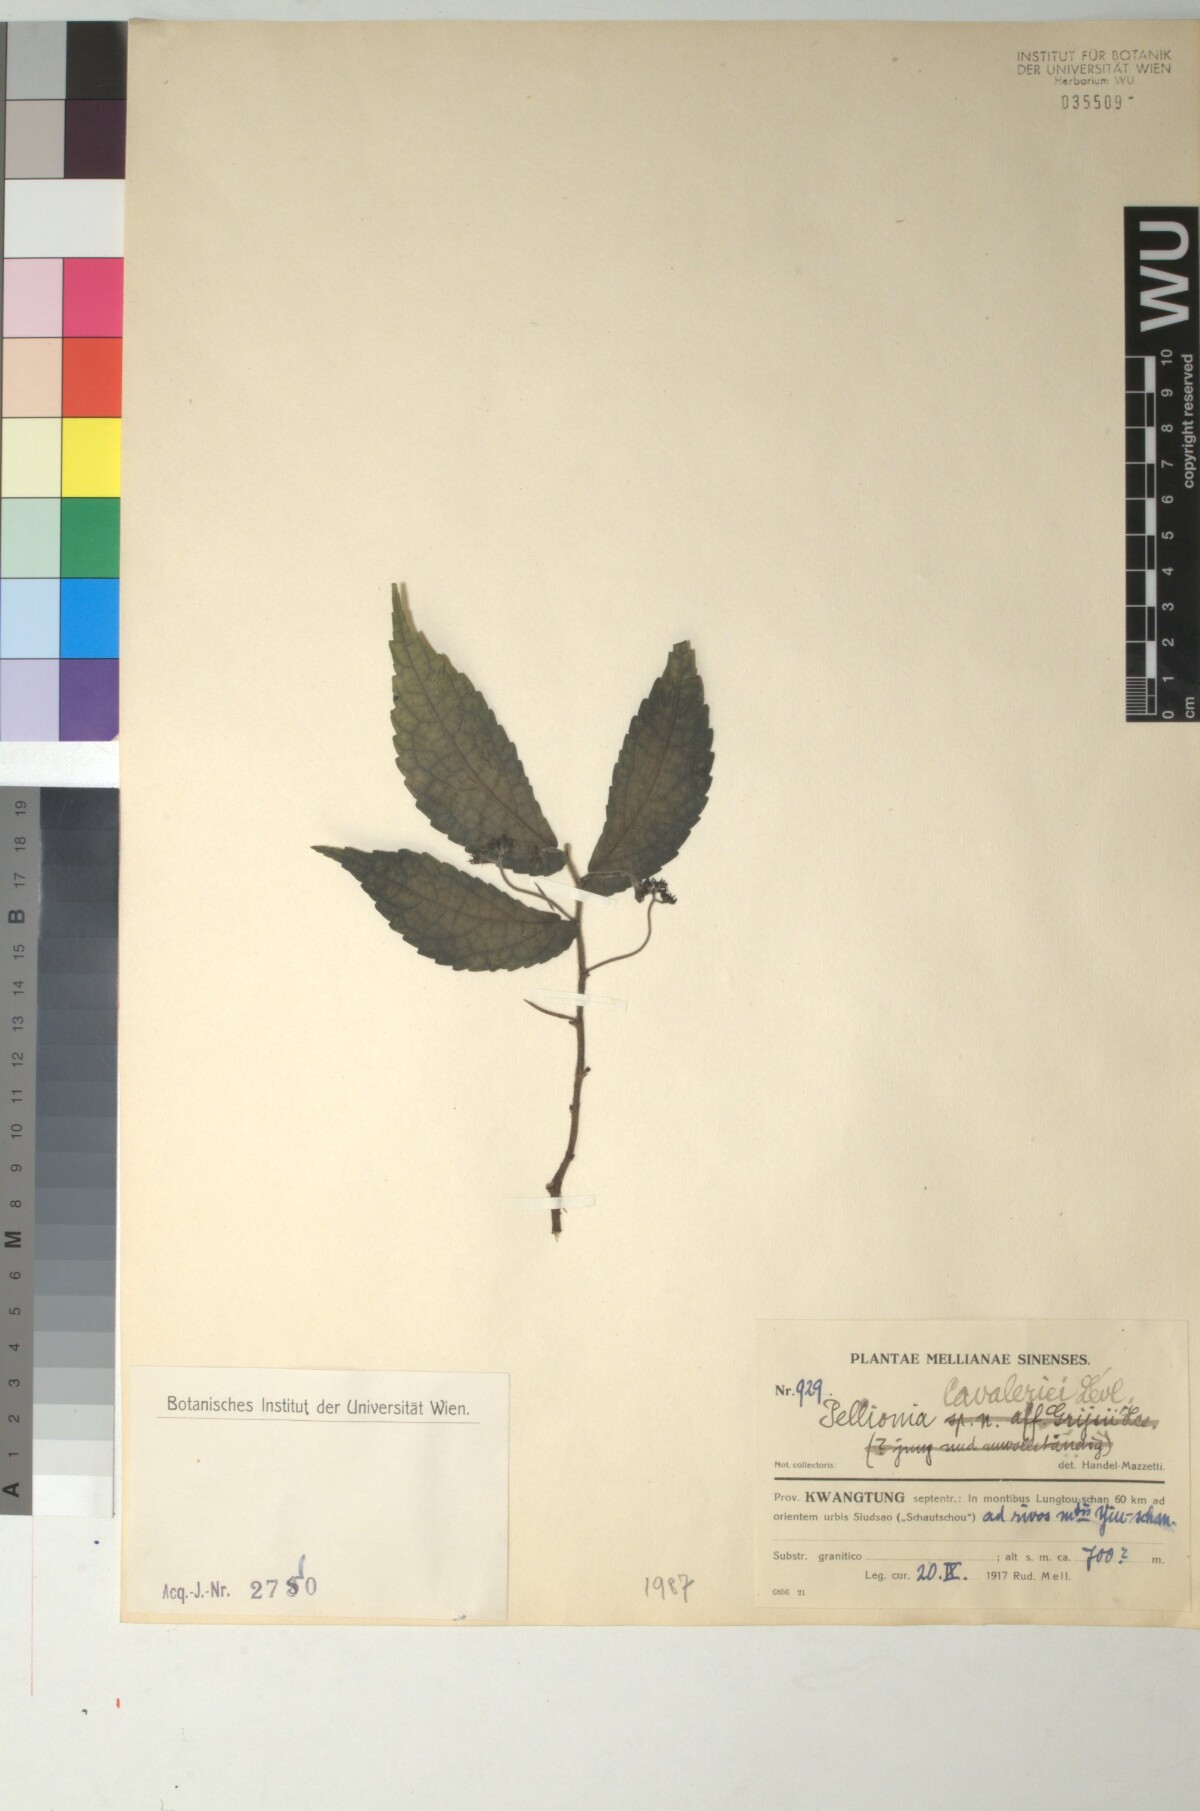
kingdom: Plantae
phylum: Tracheophyta
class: Magnoliopsida
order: Rosales
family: Urticaceae
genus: Elatostema
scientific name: Elatostema grijsii
